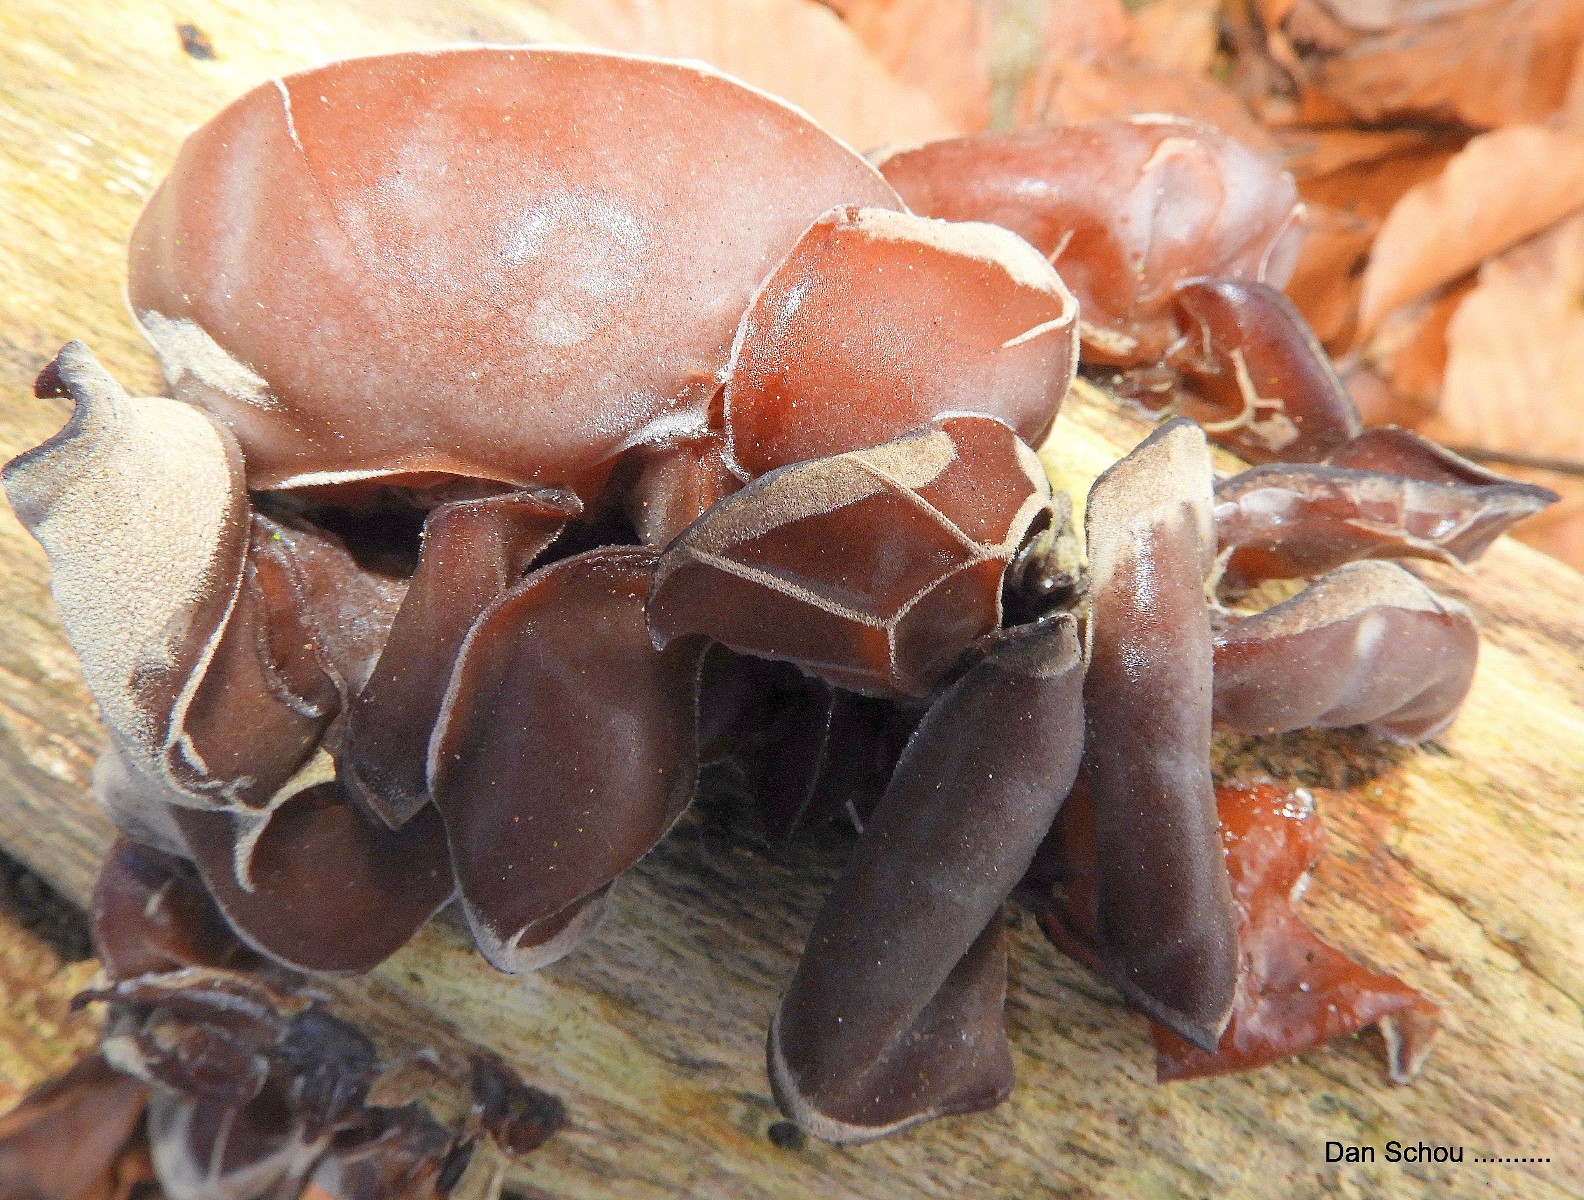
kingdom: Fungi
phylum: Basidiomycota
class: Agaricomycetes
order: Auriculariales
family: Auriculariaceae
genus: Auricularia
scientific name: Auricularia auricula-judae
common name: almindelig judasøre
